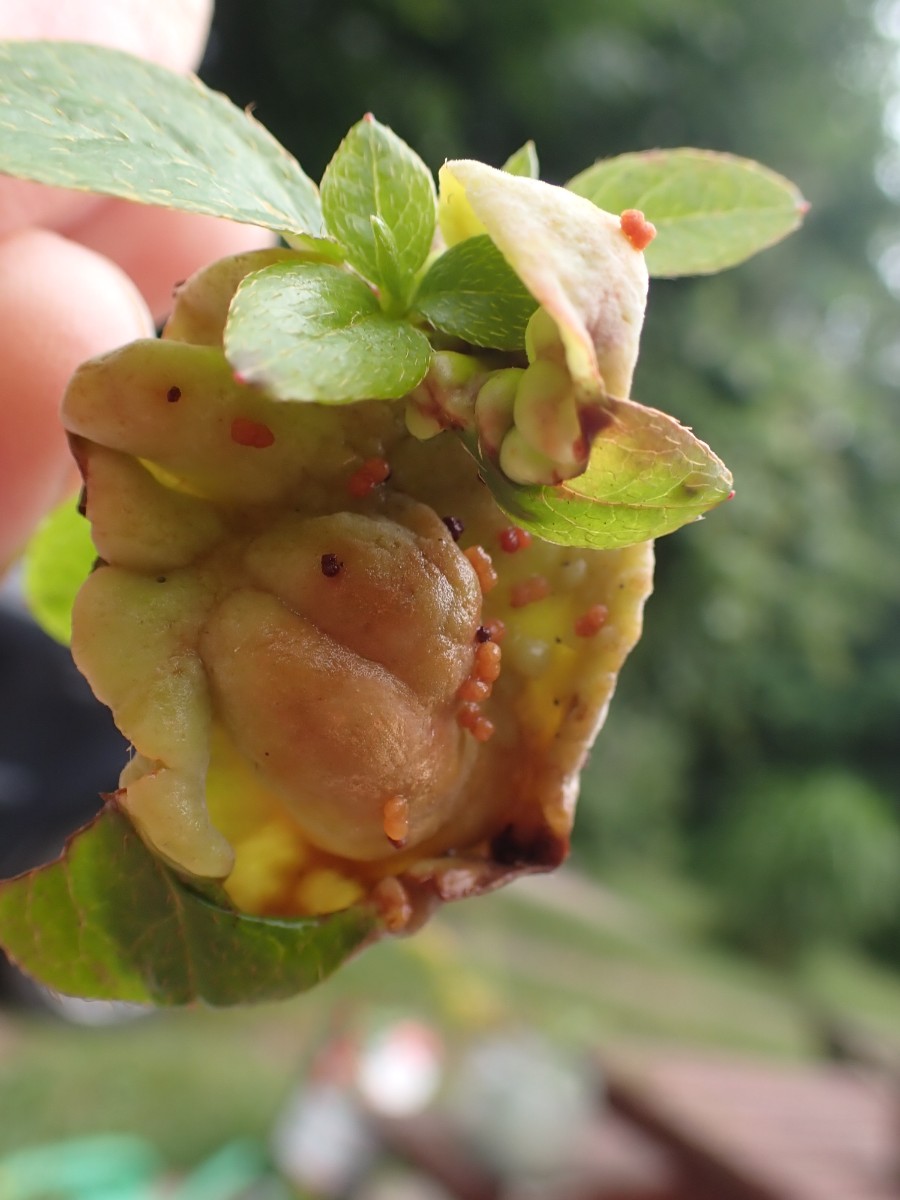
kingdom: Fungi
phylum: Basidiomycota
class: Exobasidiomycetes
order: Exobasidiales
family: Exobasidiaceae
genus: Exobasidium
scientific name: Exobasidium japonicum
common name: Azalea gall
